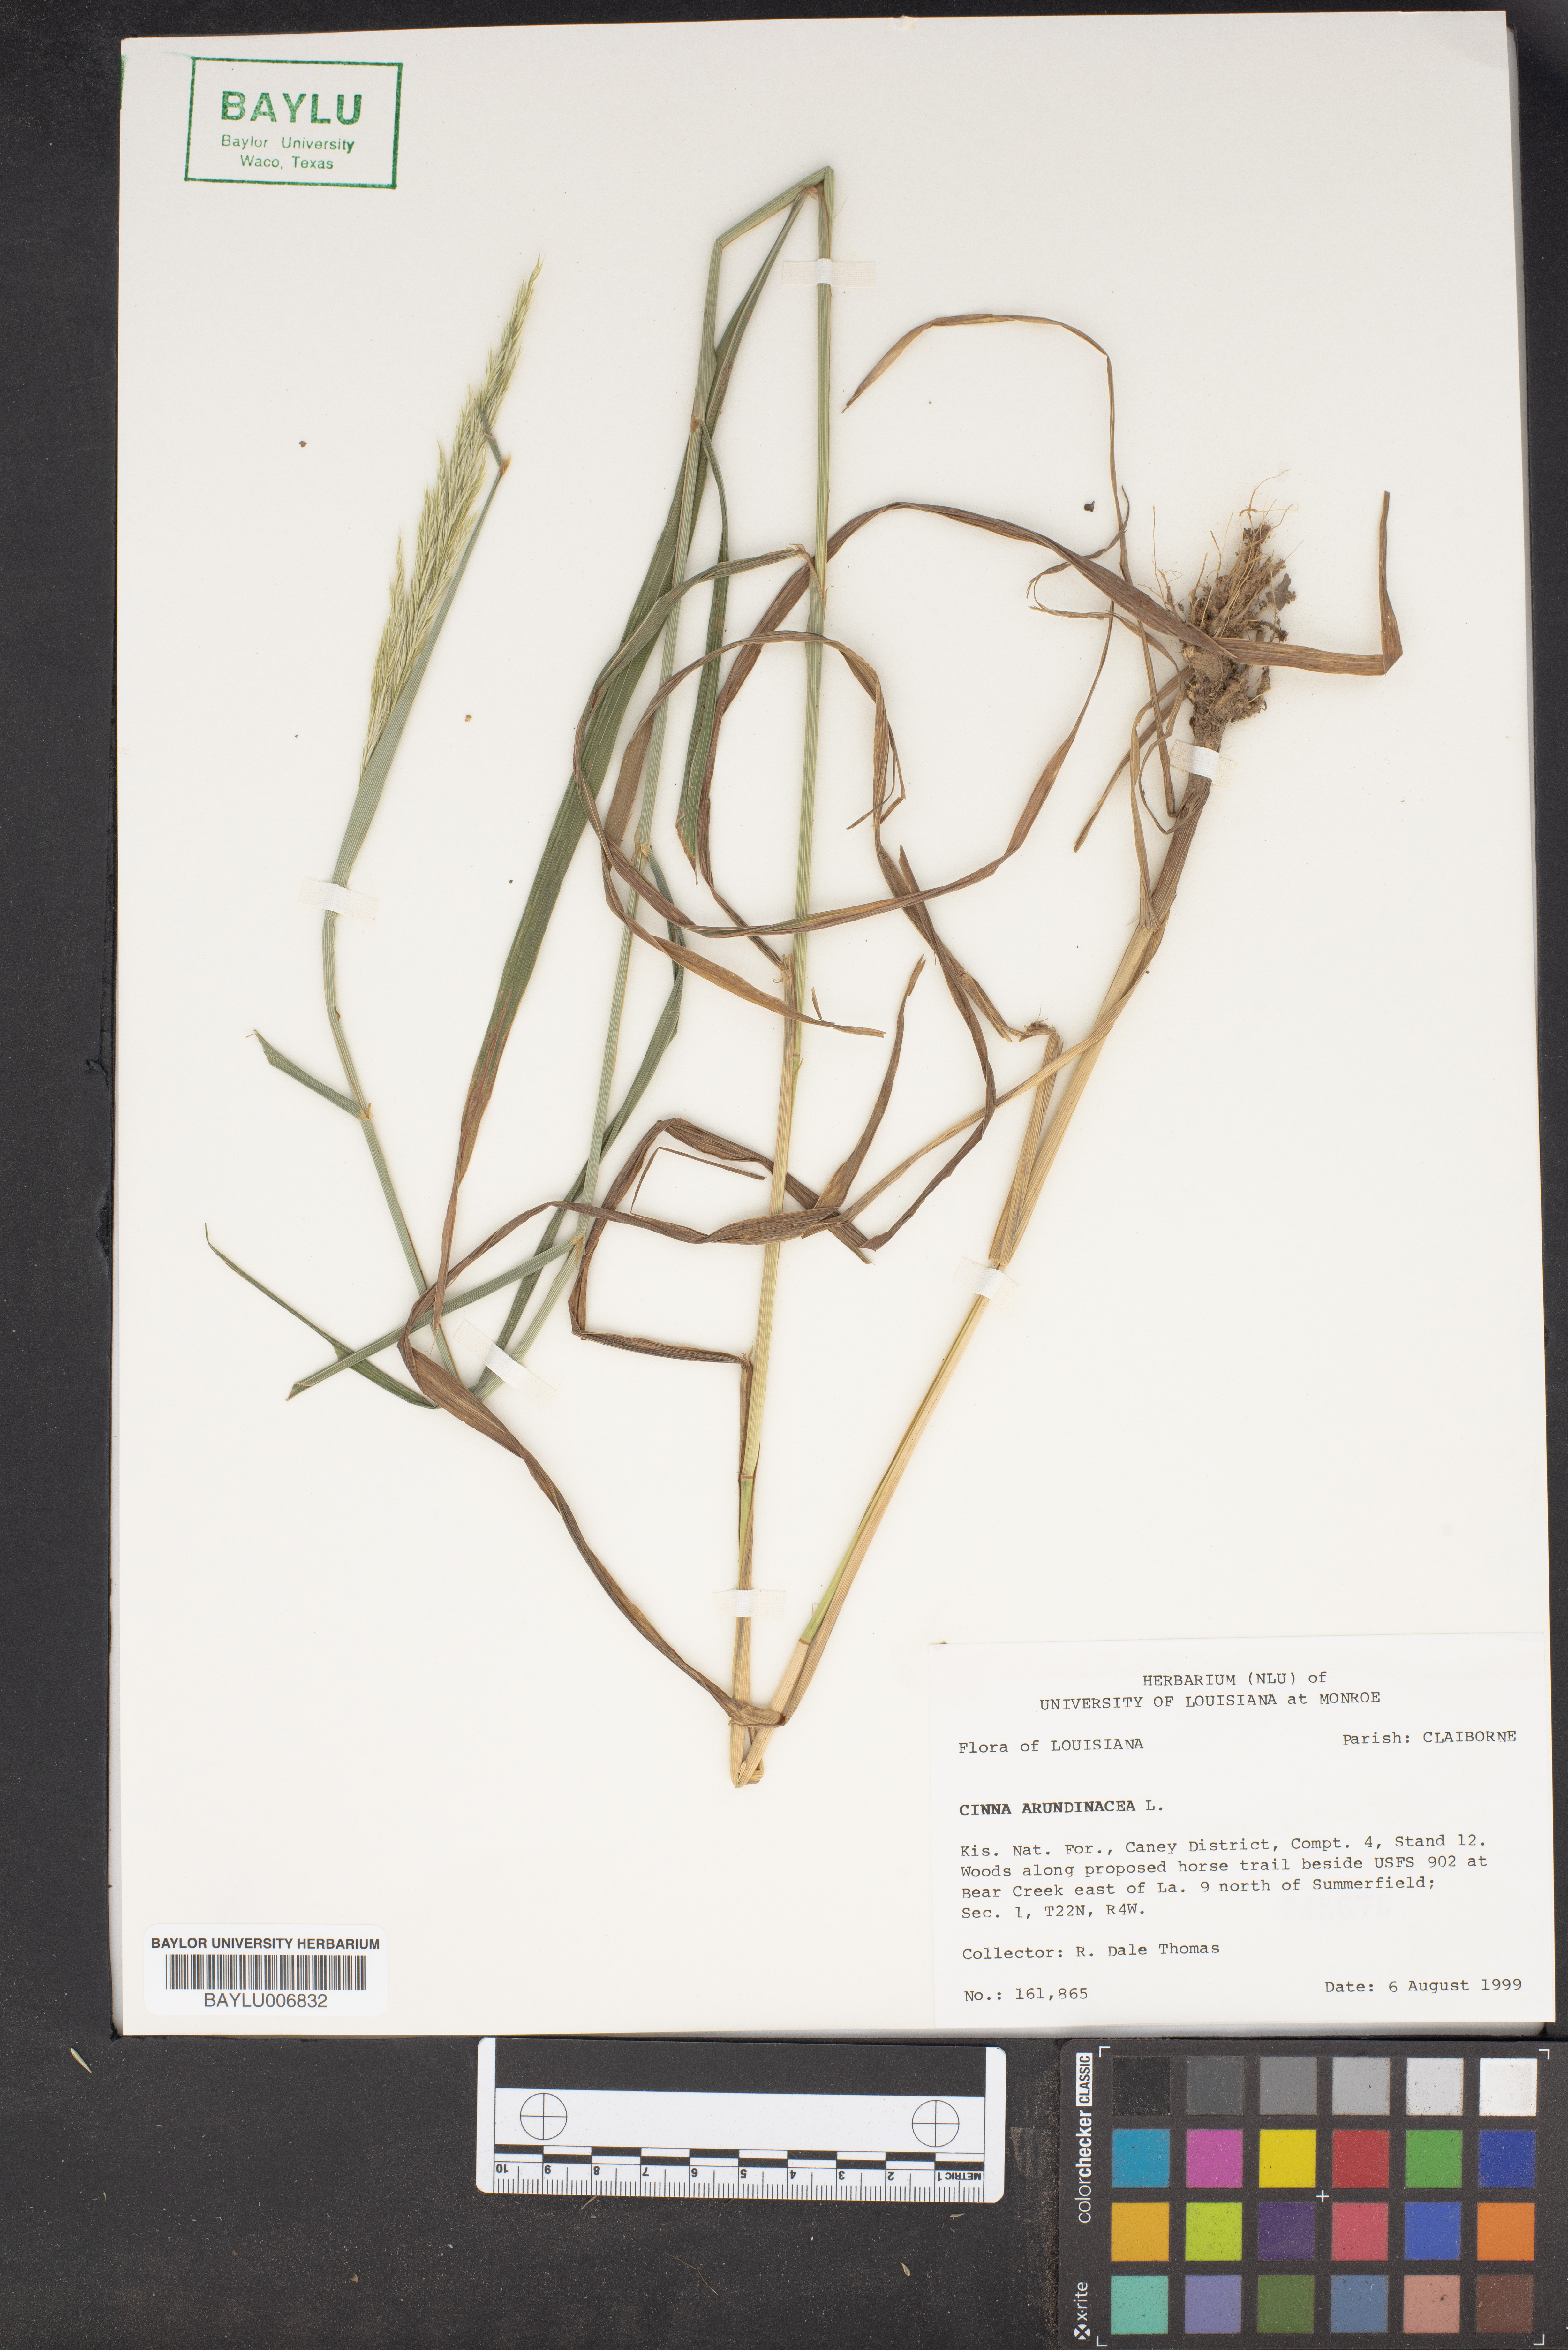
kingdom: Plantae
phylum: Tracheophyta
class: Liliopsida
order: Poales
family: Poaceae
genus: Cinna
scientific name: Cinna arundinacea
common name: Stout woodreed
